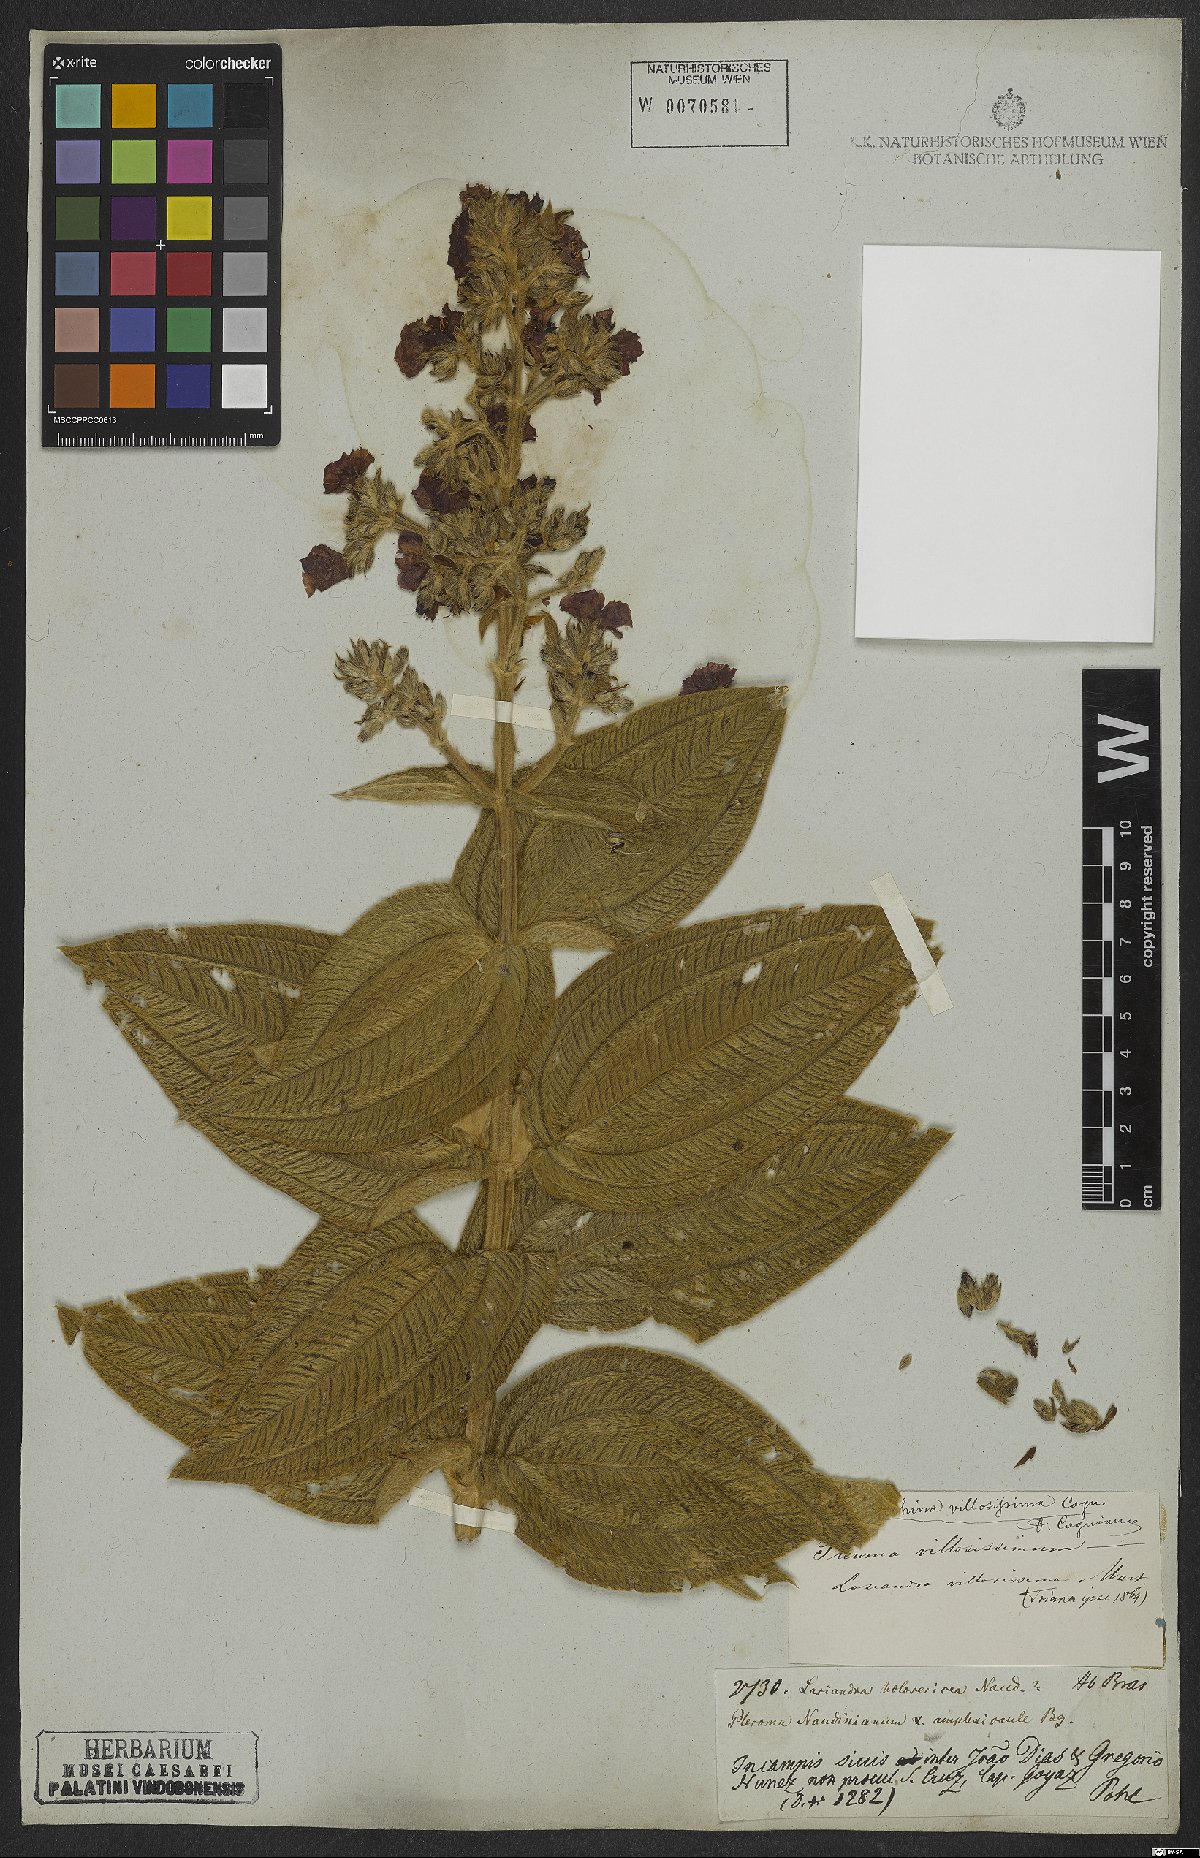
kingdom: Plantae
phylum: Tracheophyta
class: Magnoliopsida
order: Myrtales
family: Melastomataceae
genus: Pleroma
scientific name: Pleroma villosissimum
